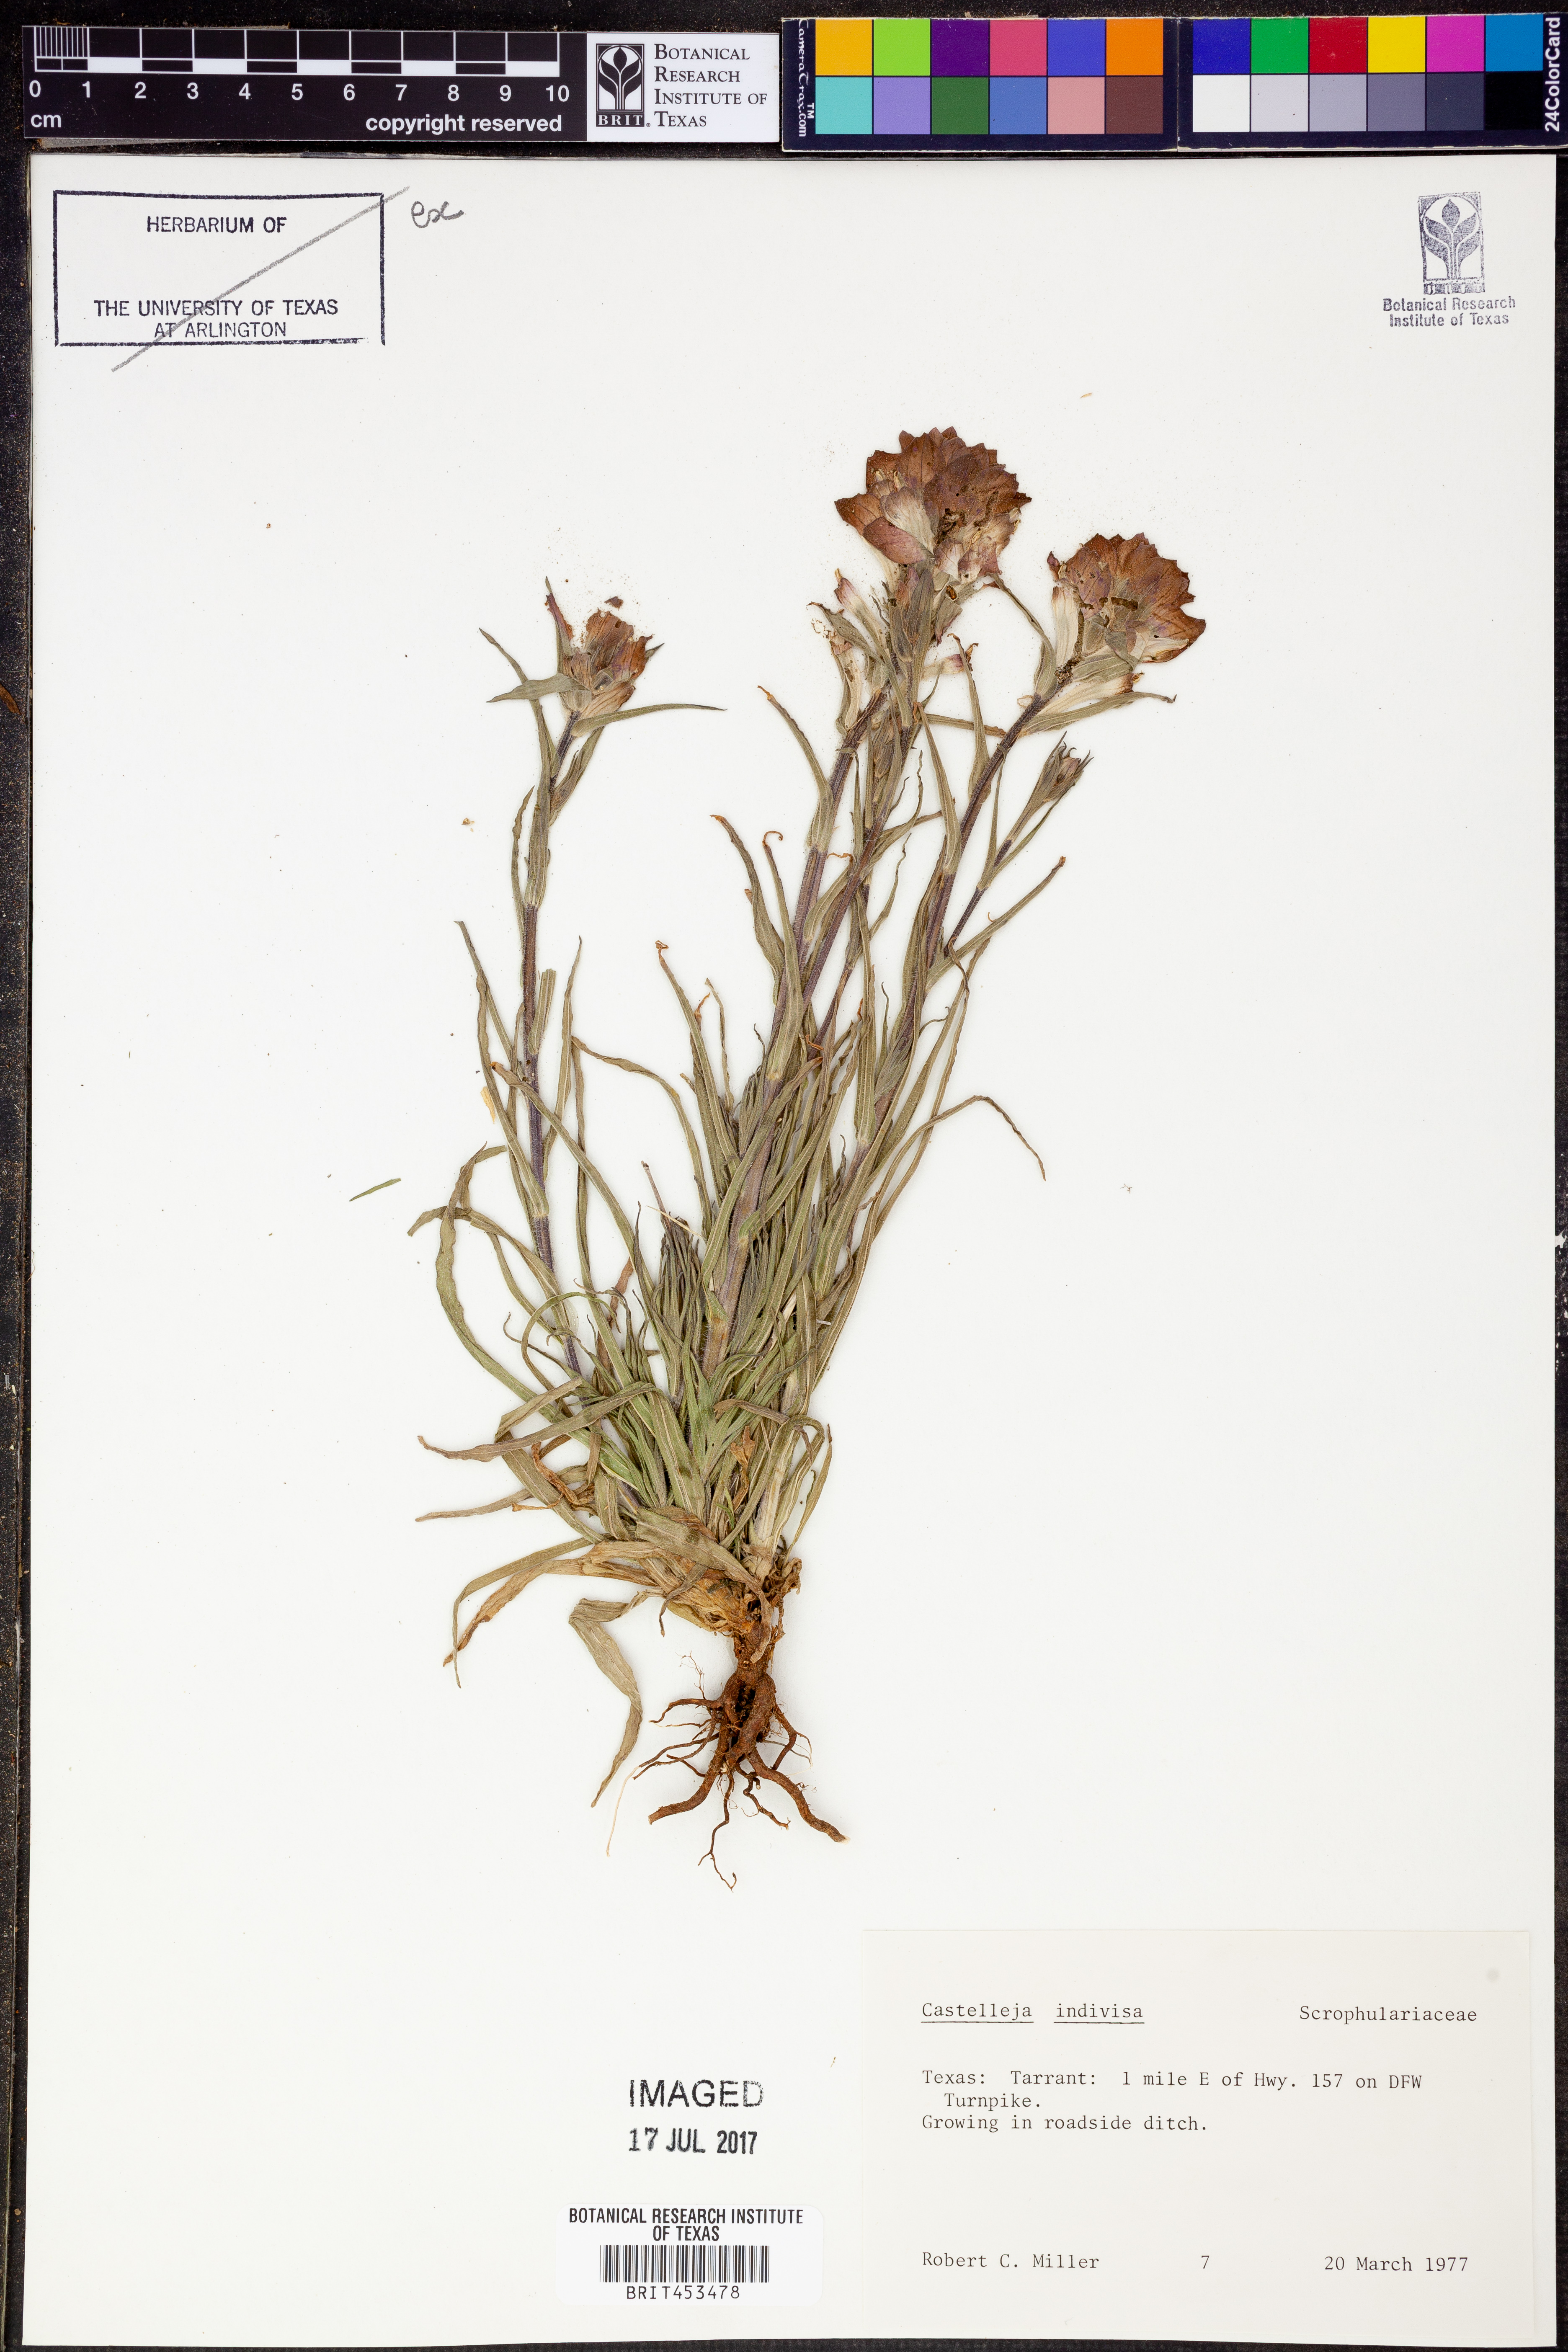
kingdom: Plantae
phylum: Tracheophyta
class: Magnoliopsida
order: Lamiales
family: Orobanchaceae
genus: Castilleja
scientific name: Castilleja indivisa
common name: Texas paintbrush
